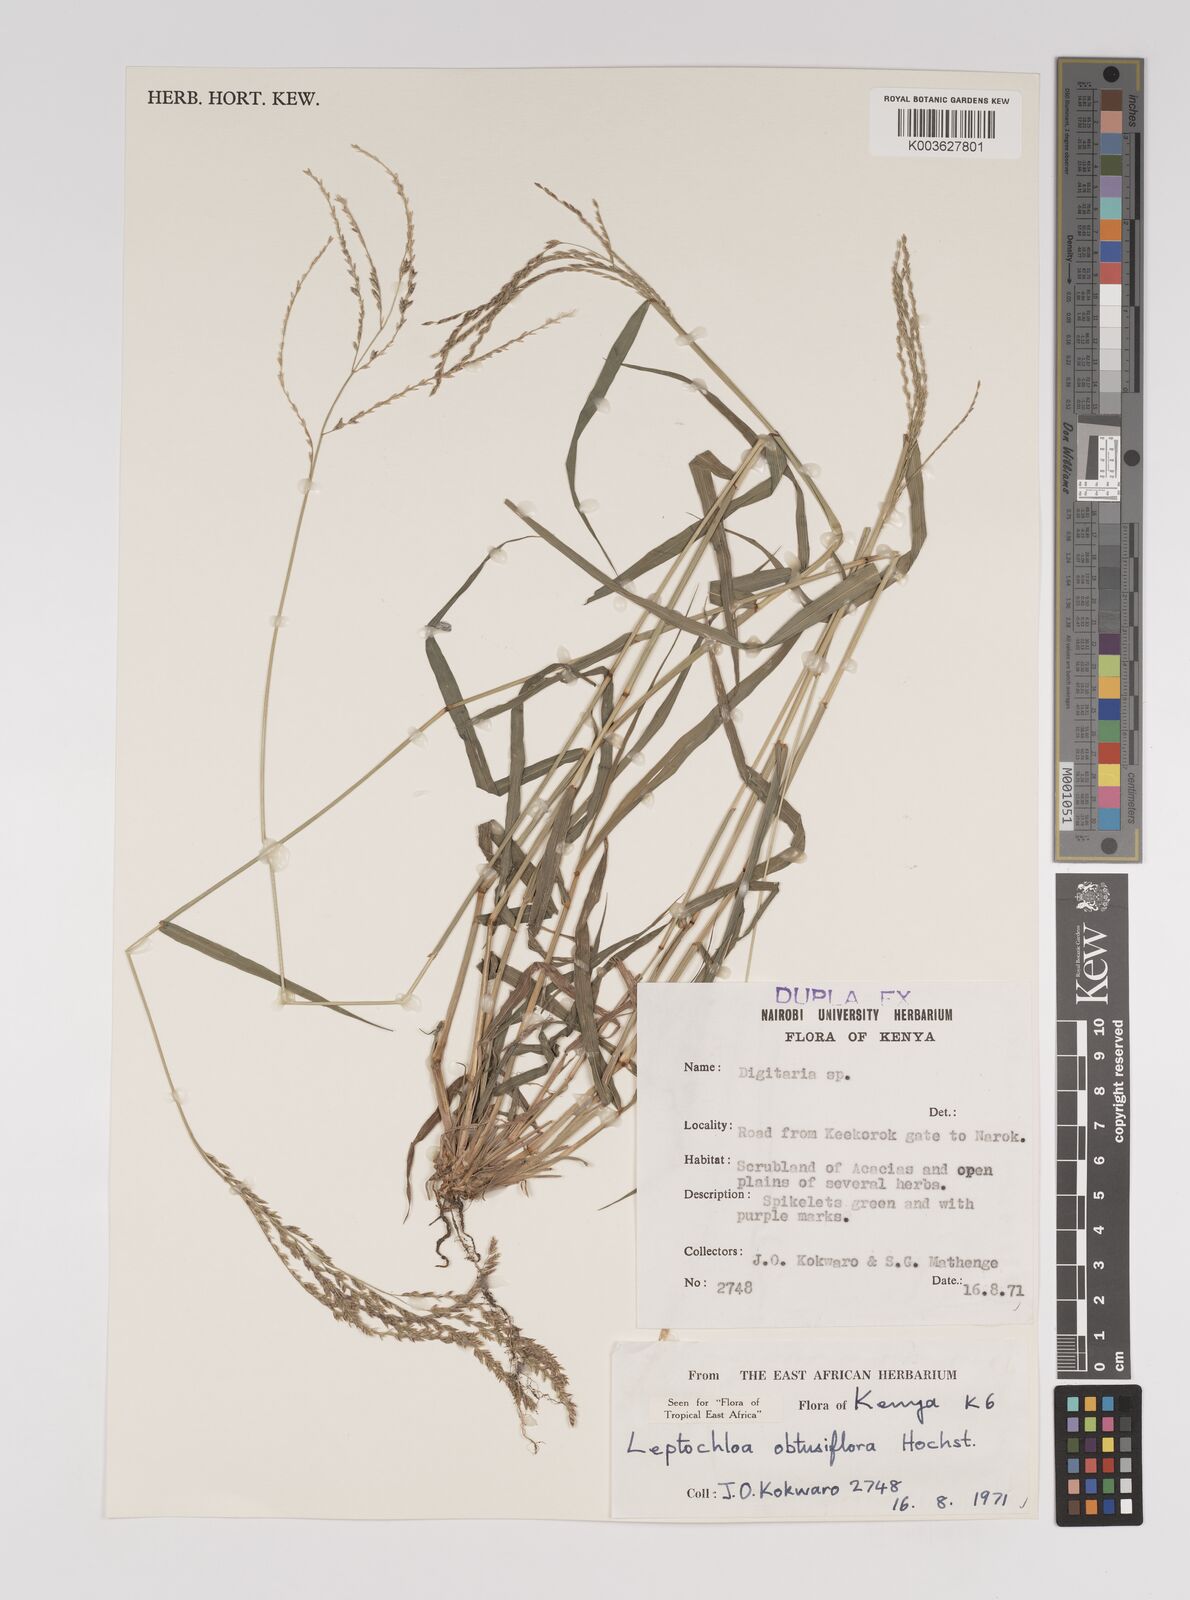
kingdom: Plantae
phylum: Tracheophyta
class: Liliopsida
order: Poales
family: Poaceae
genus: Disakisperma
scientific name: Disakisperma obtusiflorum
